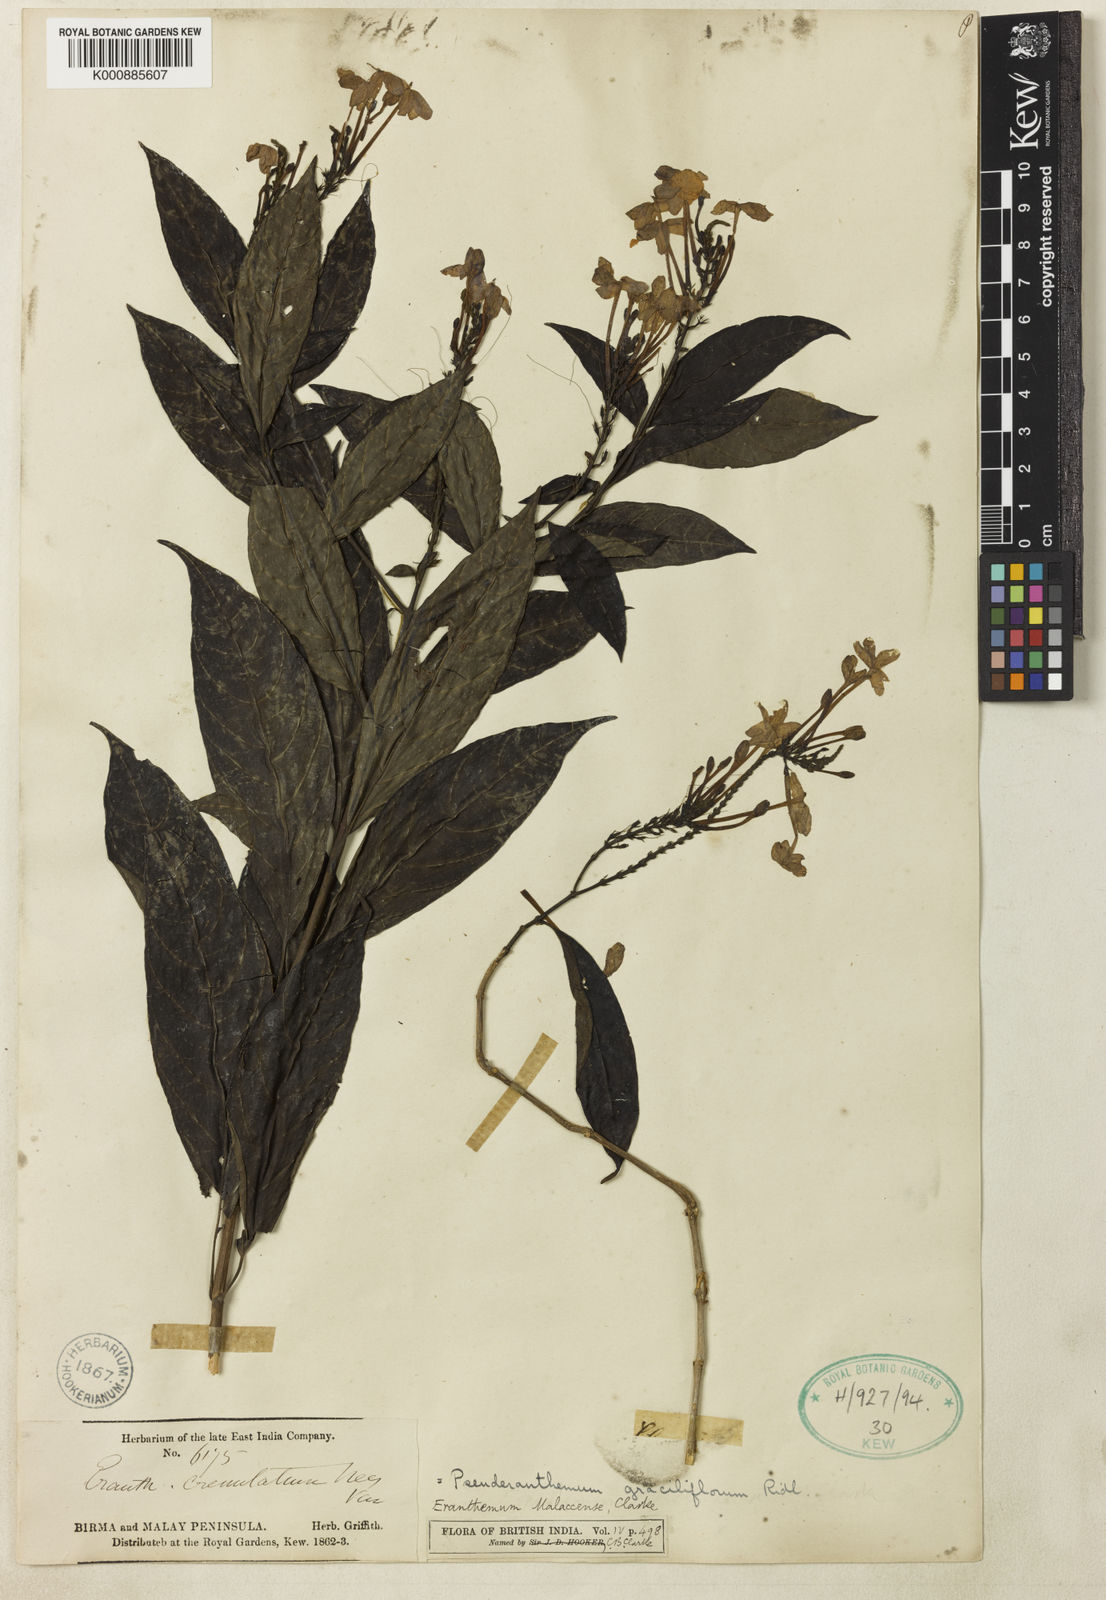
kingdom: Plantae
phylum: Tracheophyta
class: Magnoliopsida
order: Lamiales
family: Acanthaceae
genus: Pseuderanthemum
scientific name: Pseuderanthemum graciliflorum
